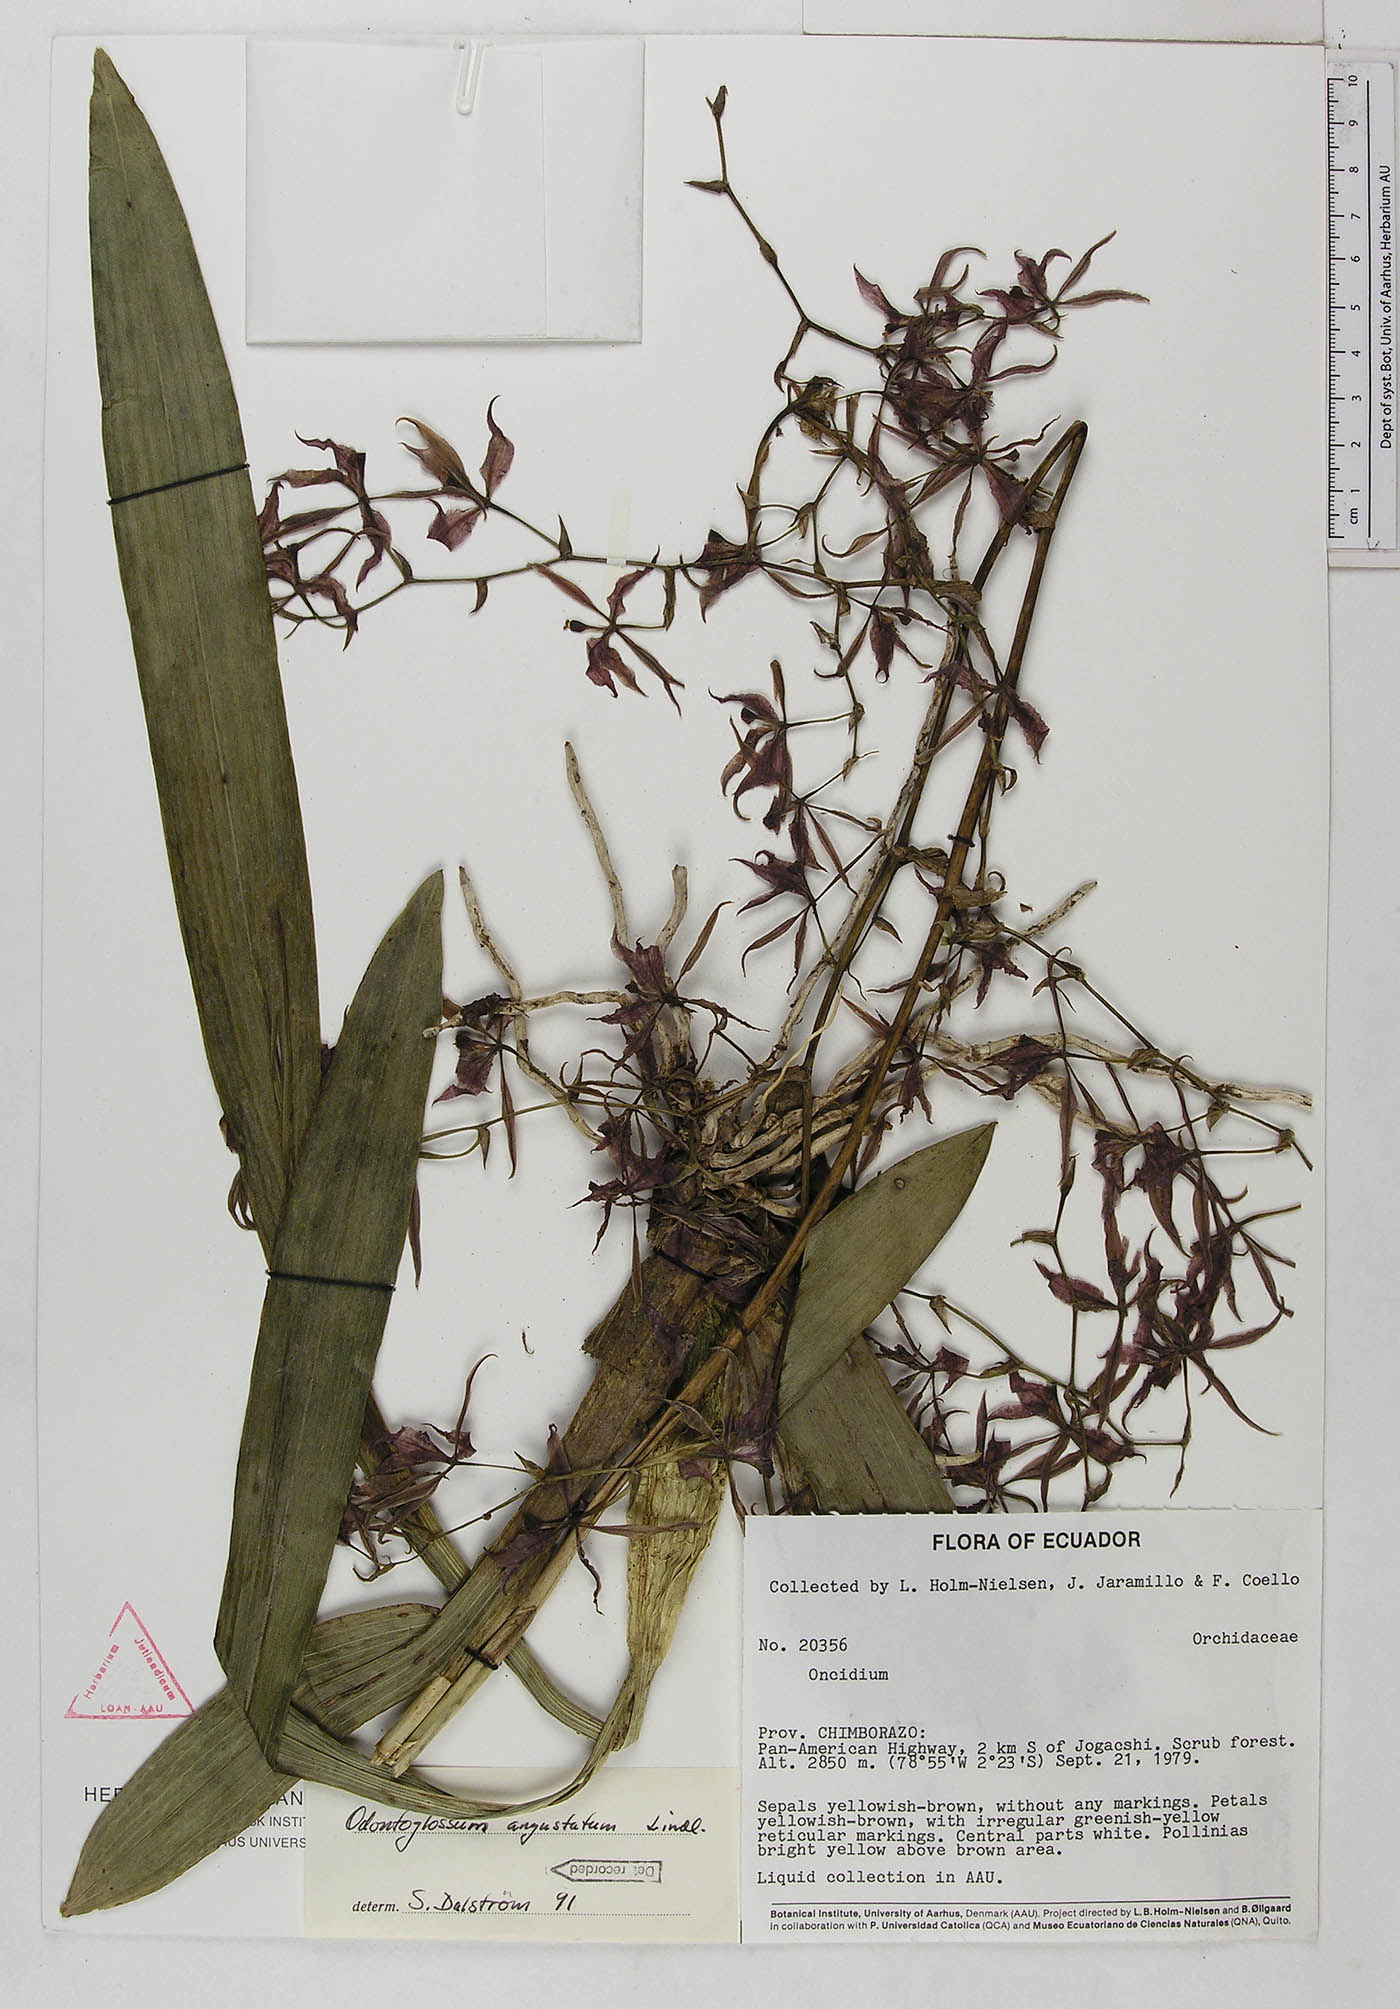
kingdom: Plantae
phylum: Tracheophyta
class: Liliopsida
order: Asparagales
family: Orchidaceae
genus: Cyrtochilum
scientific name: Cyrtochilum
